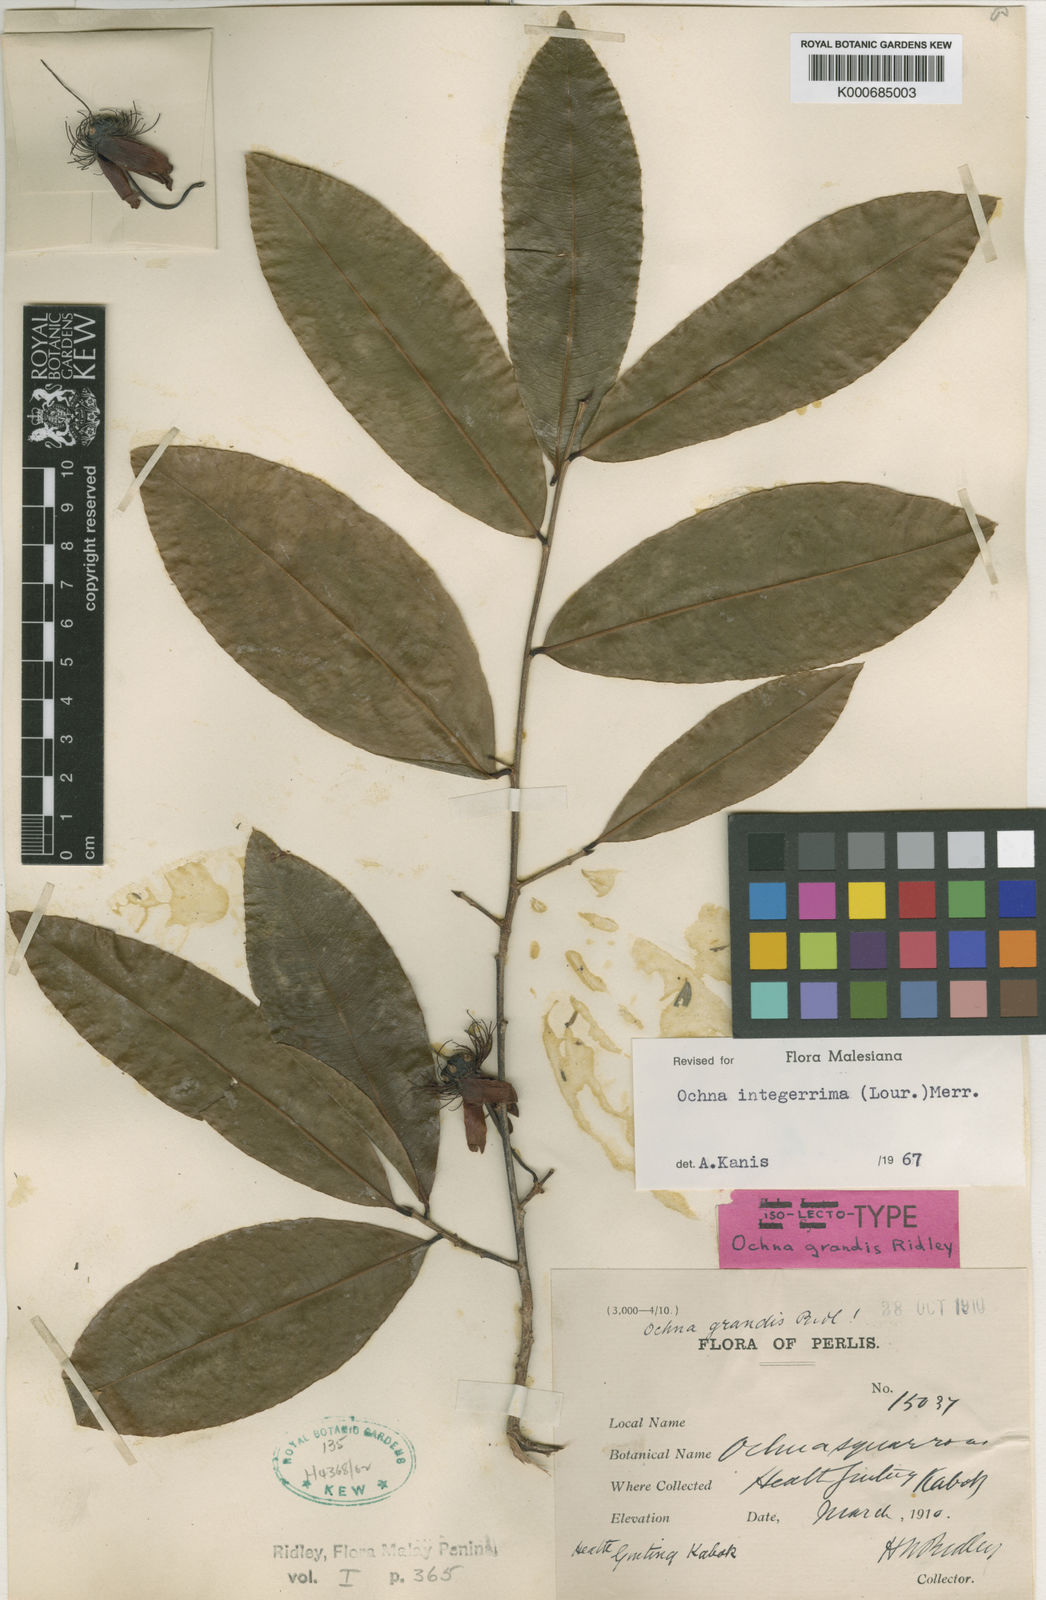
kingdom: Plantae
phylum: Tracheophyta
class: Magnoliopsida
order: Malpighiales
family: Ochnaceae
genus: Ochna
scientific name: Ochna integerrima
